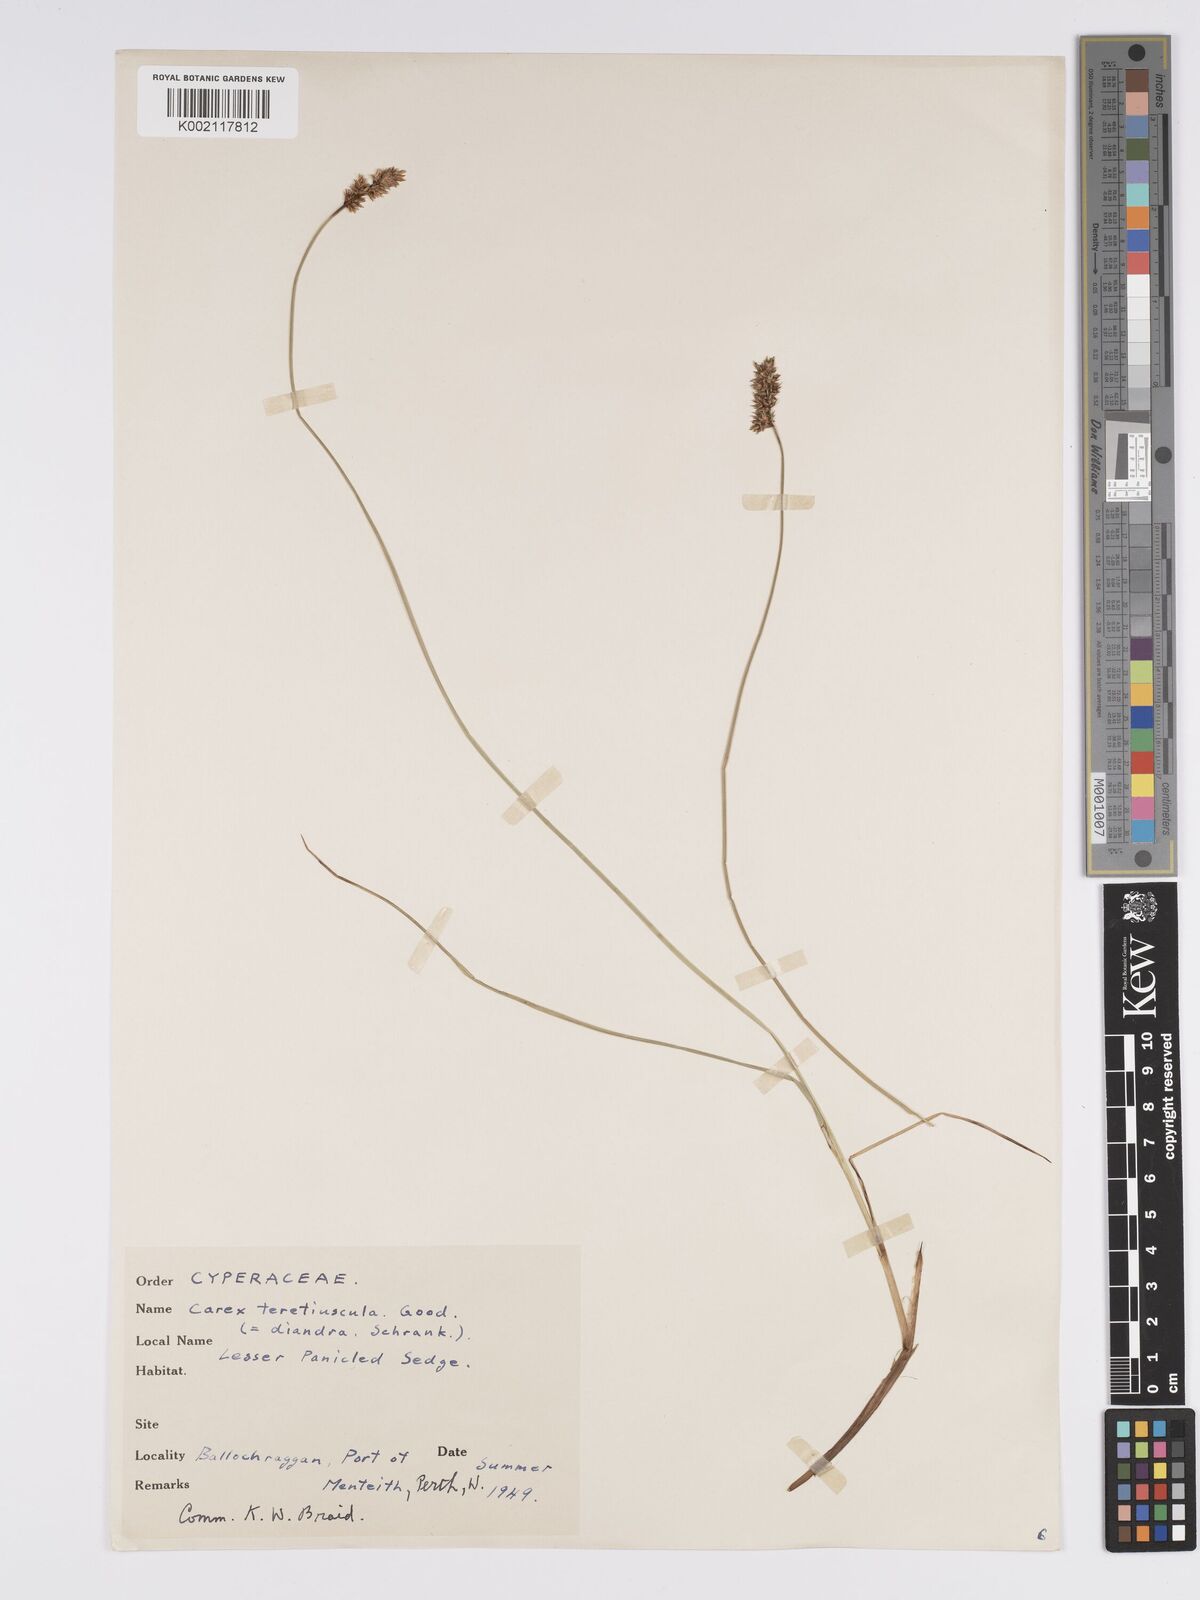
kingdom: Plantae
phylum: Tracheophyta
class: Liliopsida
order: Poales
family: Cyperaceae
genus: Carex
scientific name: Carex diandra
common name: Lesser tussock-sedge
